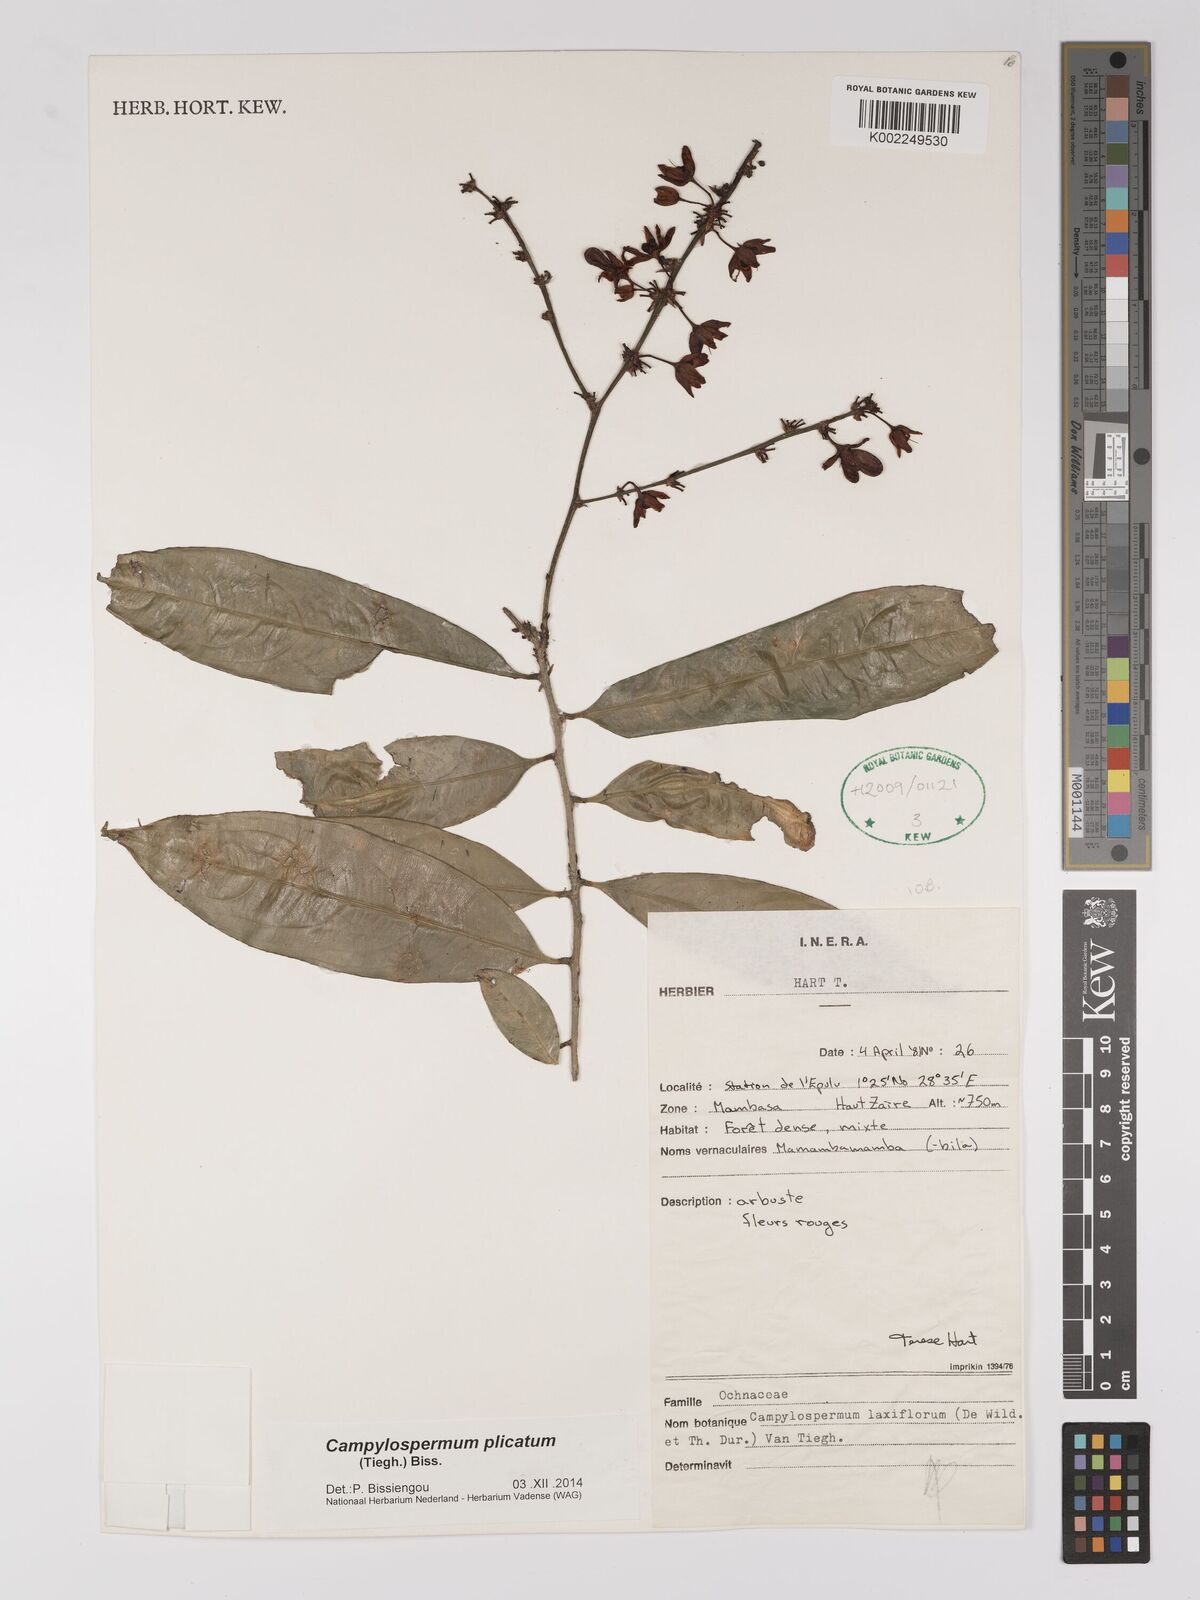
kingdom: Plantae
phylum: Tracheophyta
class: Magnoliopsida
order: Malpighiales
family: Ochnaceae
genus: Campylospermum
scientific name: Campylospermum
